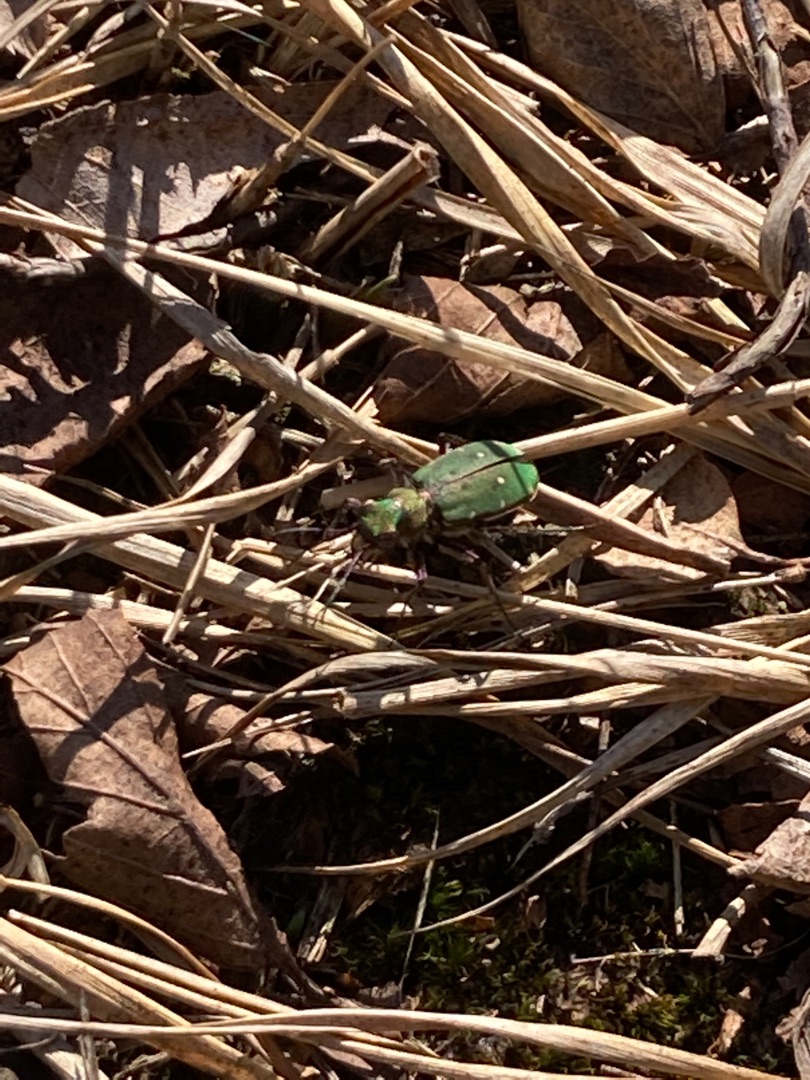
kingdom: Animalia
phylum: Arthropoda
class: Insecta
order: Coleoptera
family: Carabidae
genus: Cicindela
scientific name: Cicindela campestris
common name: Grøn sandspringer
